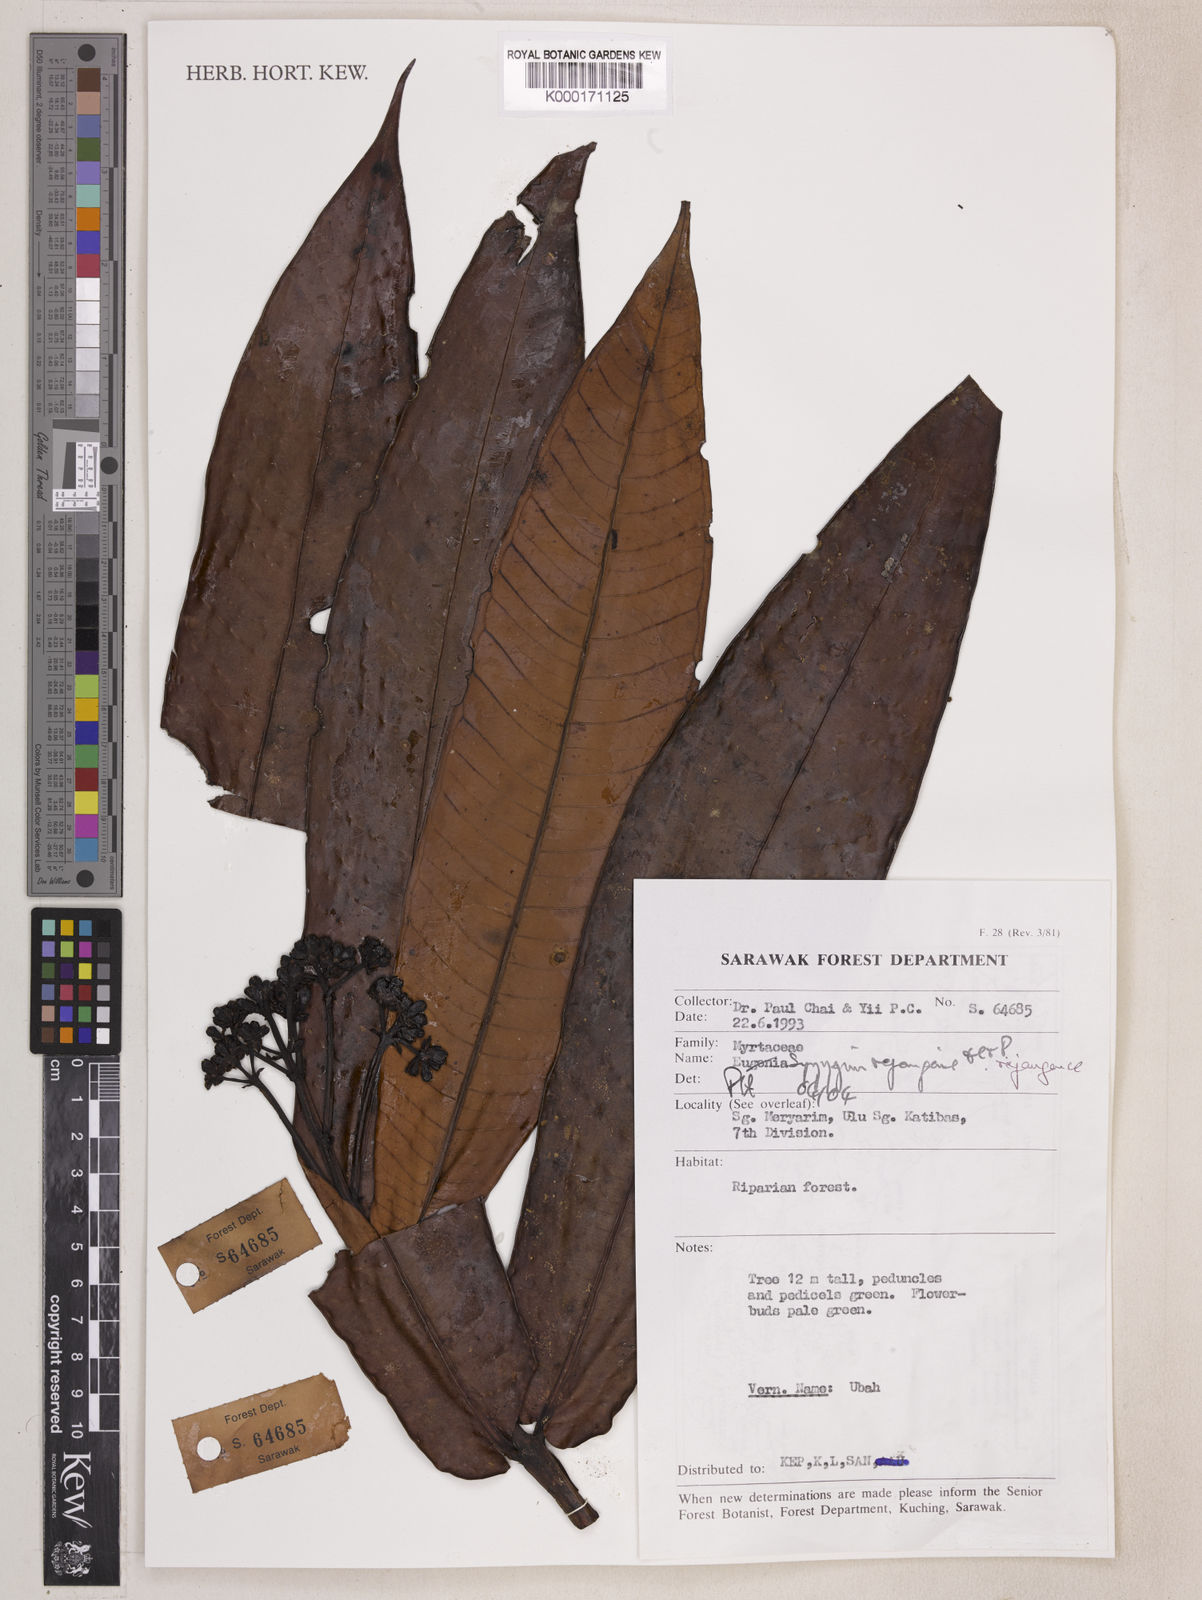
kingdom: Plantae
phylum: Tracheophyta
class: Magnoliopsida
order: Myrtales
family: Myrtaceae
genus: Syzygium
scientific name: Syzygium rejangense
